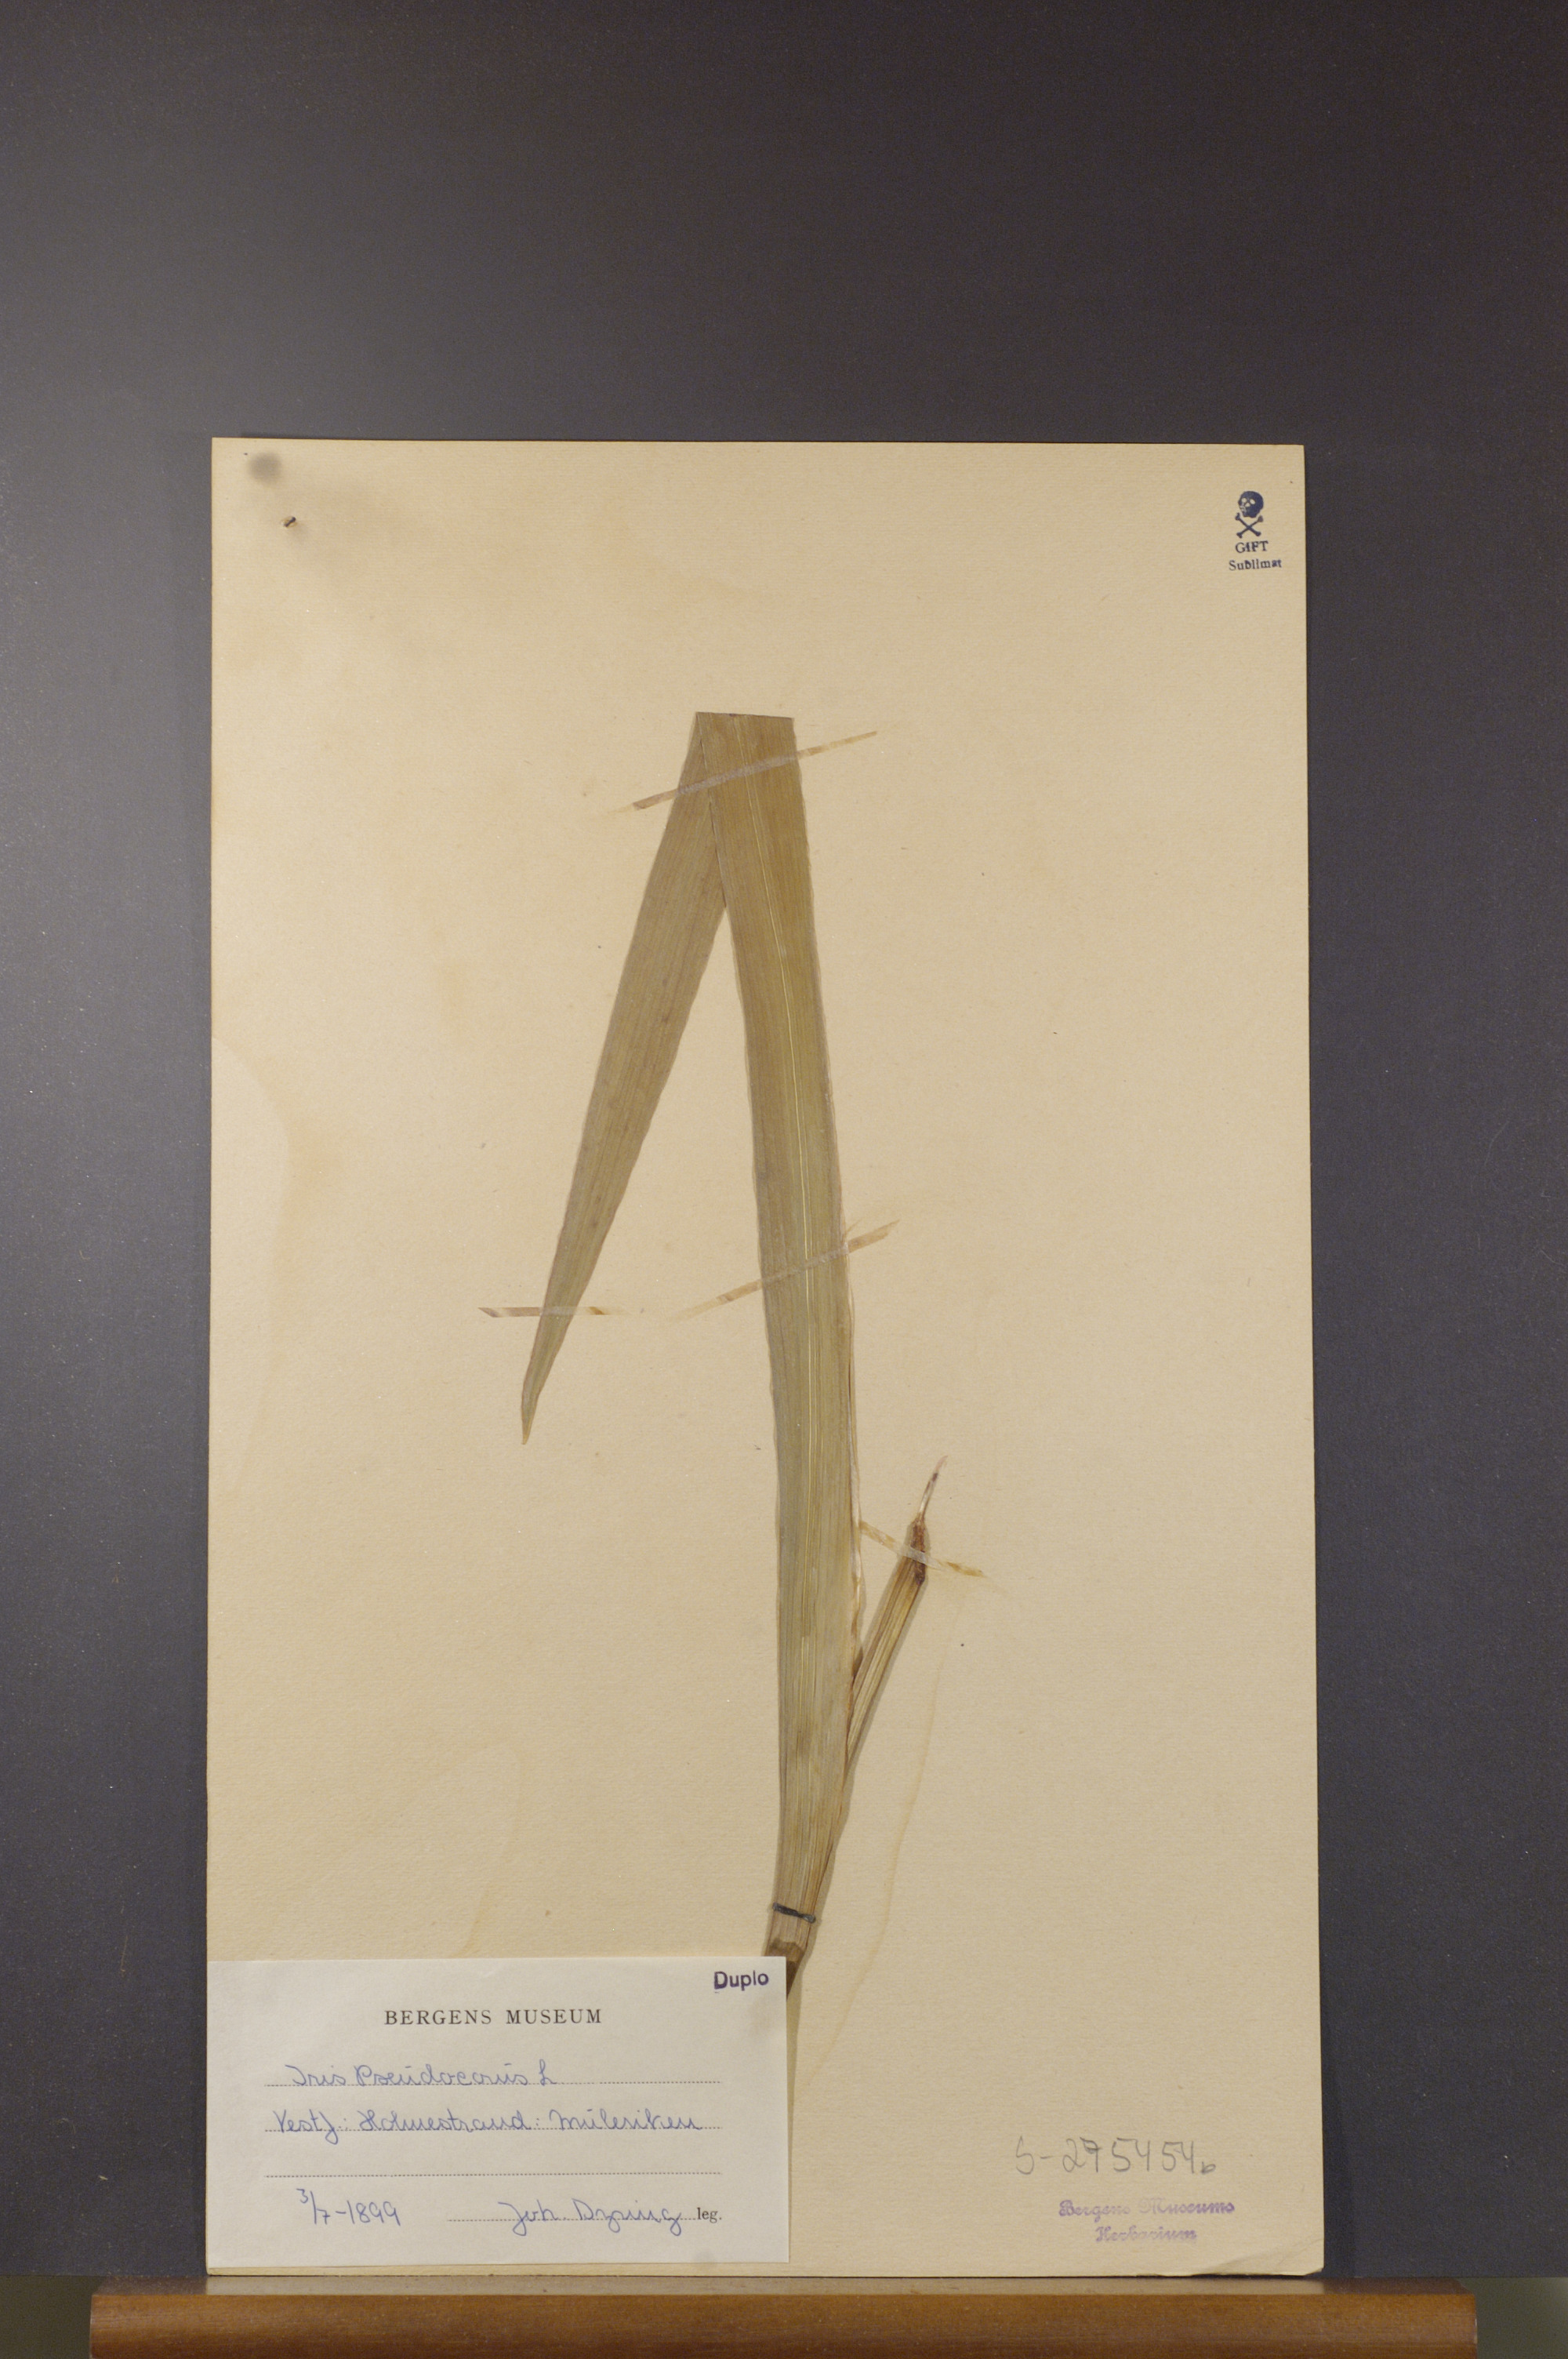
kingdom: Plantae
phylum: Tracheophyta
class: Liliopsida
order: Asparagales
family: Iridaceae
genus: Iris
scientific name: Iris pseudacorus
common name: Yellow flag
